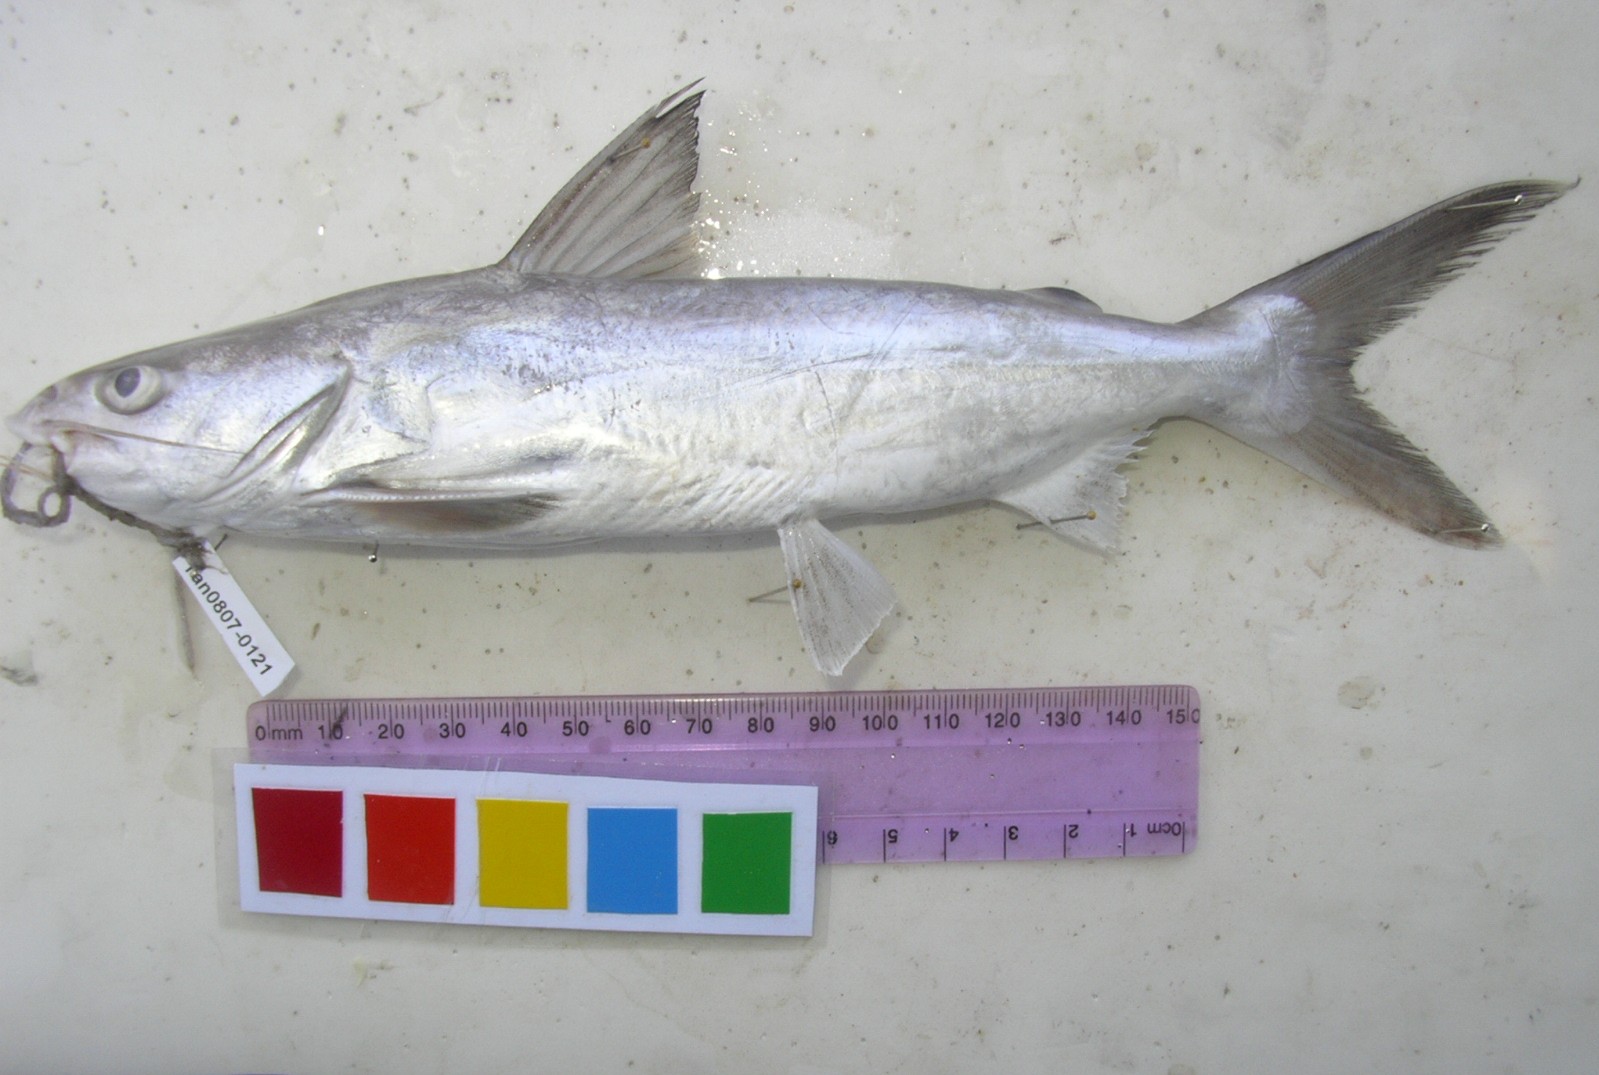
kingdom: Animalia
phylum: Chordata
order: Siluriformes
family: Ariidae
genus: Netuma
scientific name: Netuma thalassina
